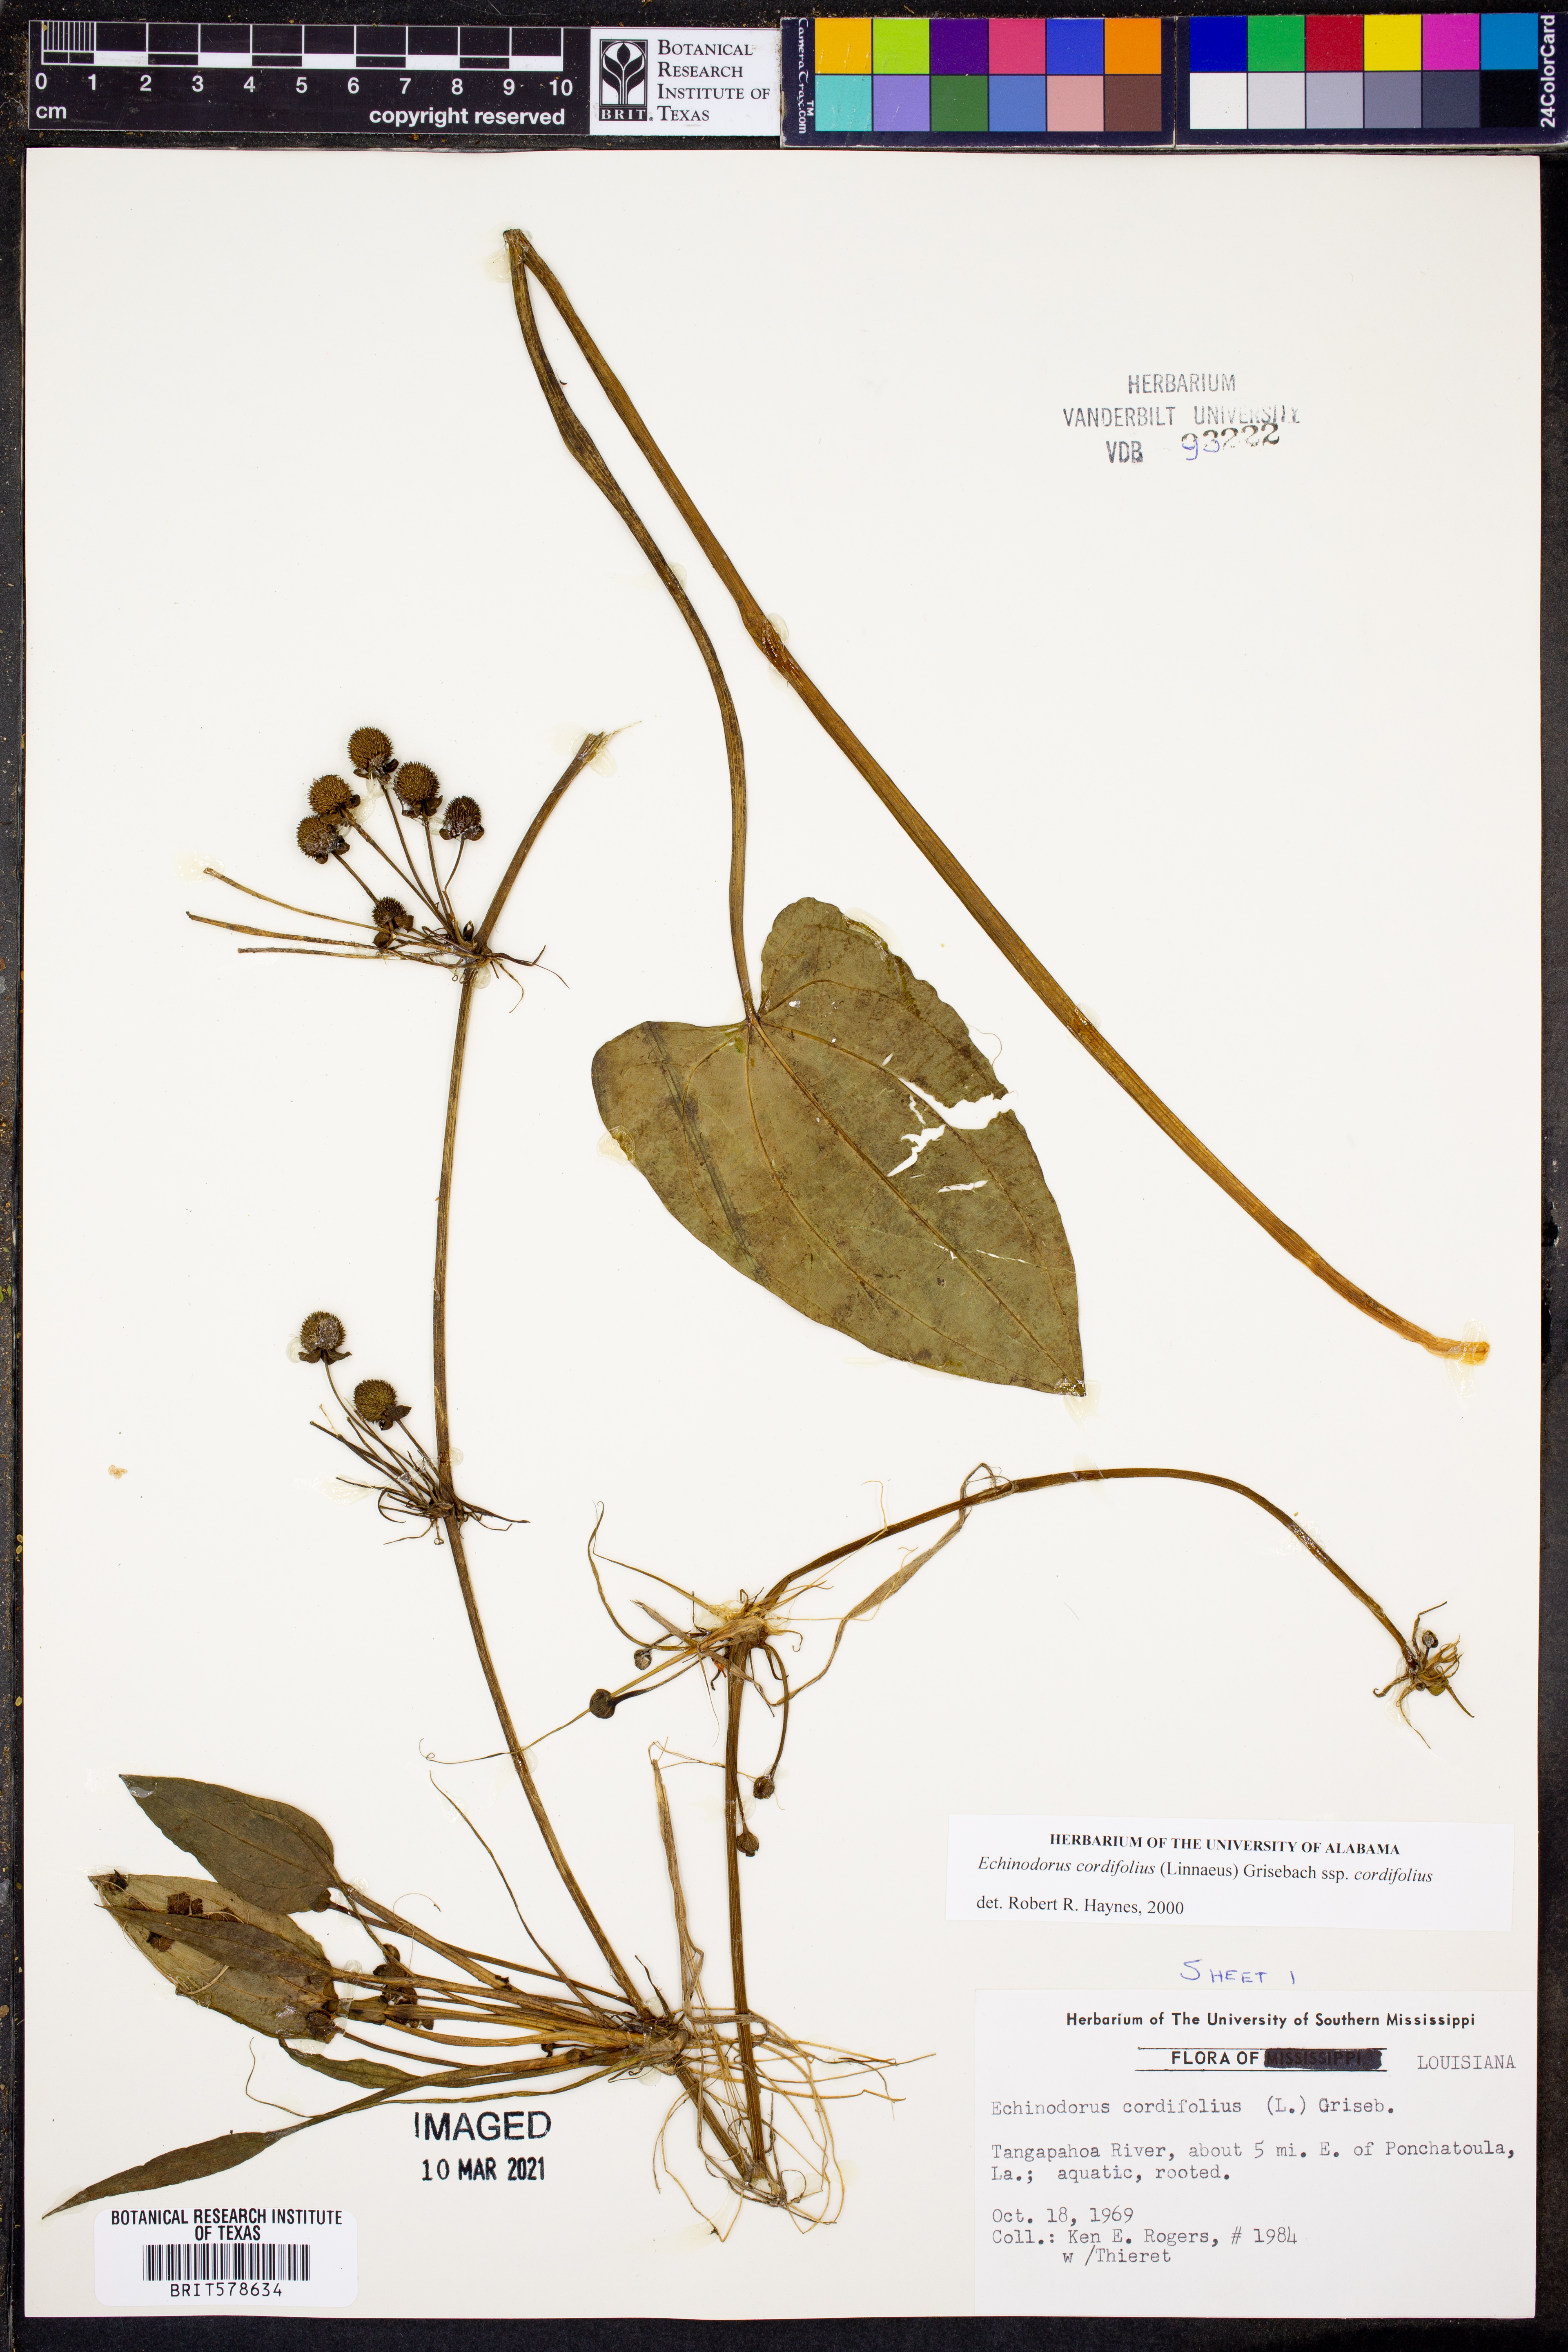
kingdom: Plantae
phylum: Tracheophyta
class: Liliopsida
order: Alismatales
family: Alismataceae
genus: Aquarius
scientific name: Aquarius cordifolius
